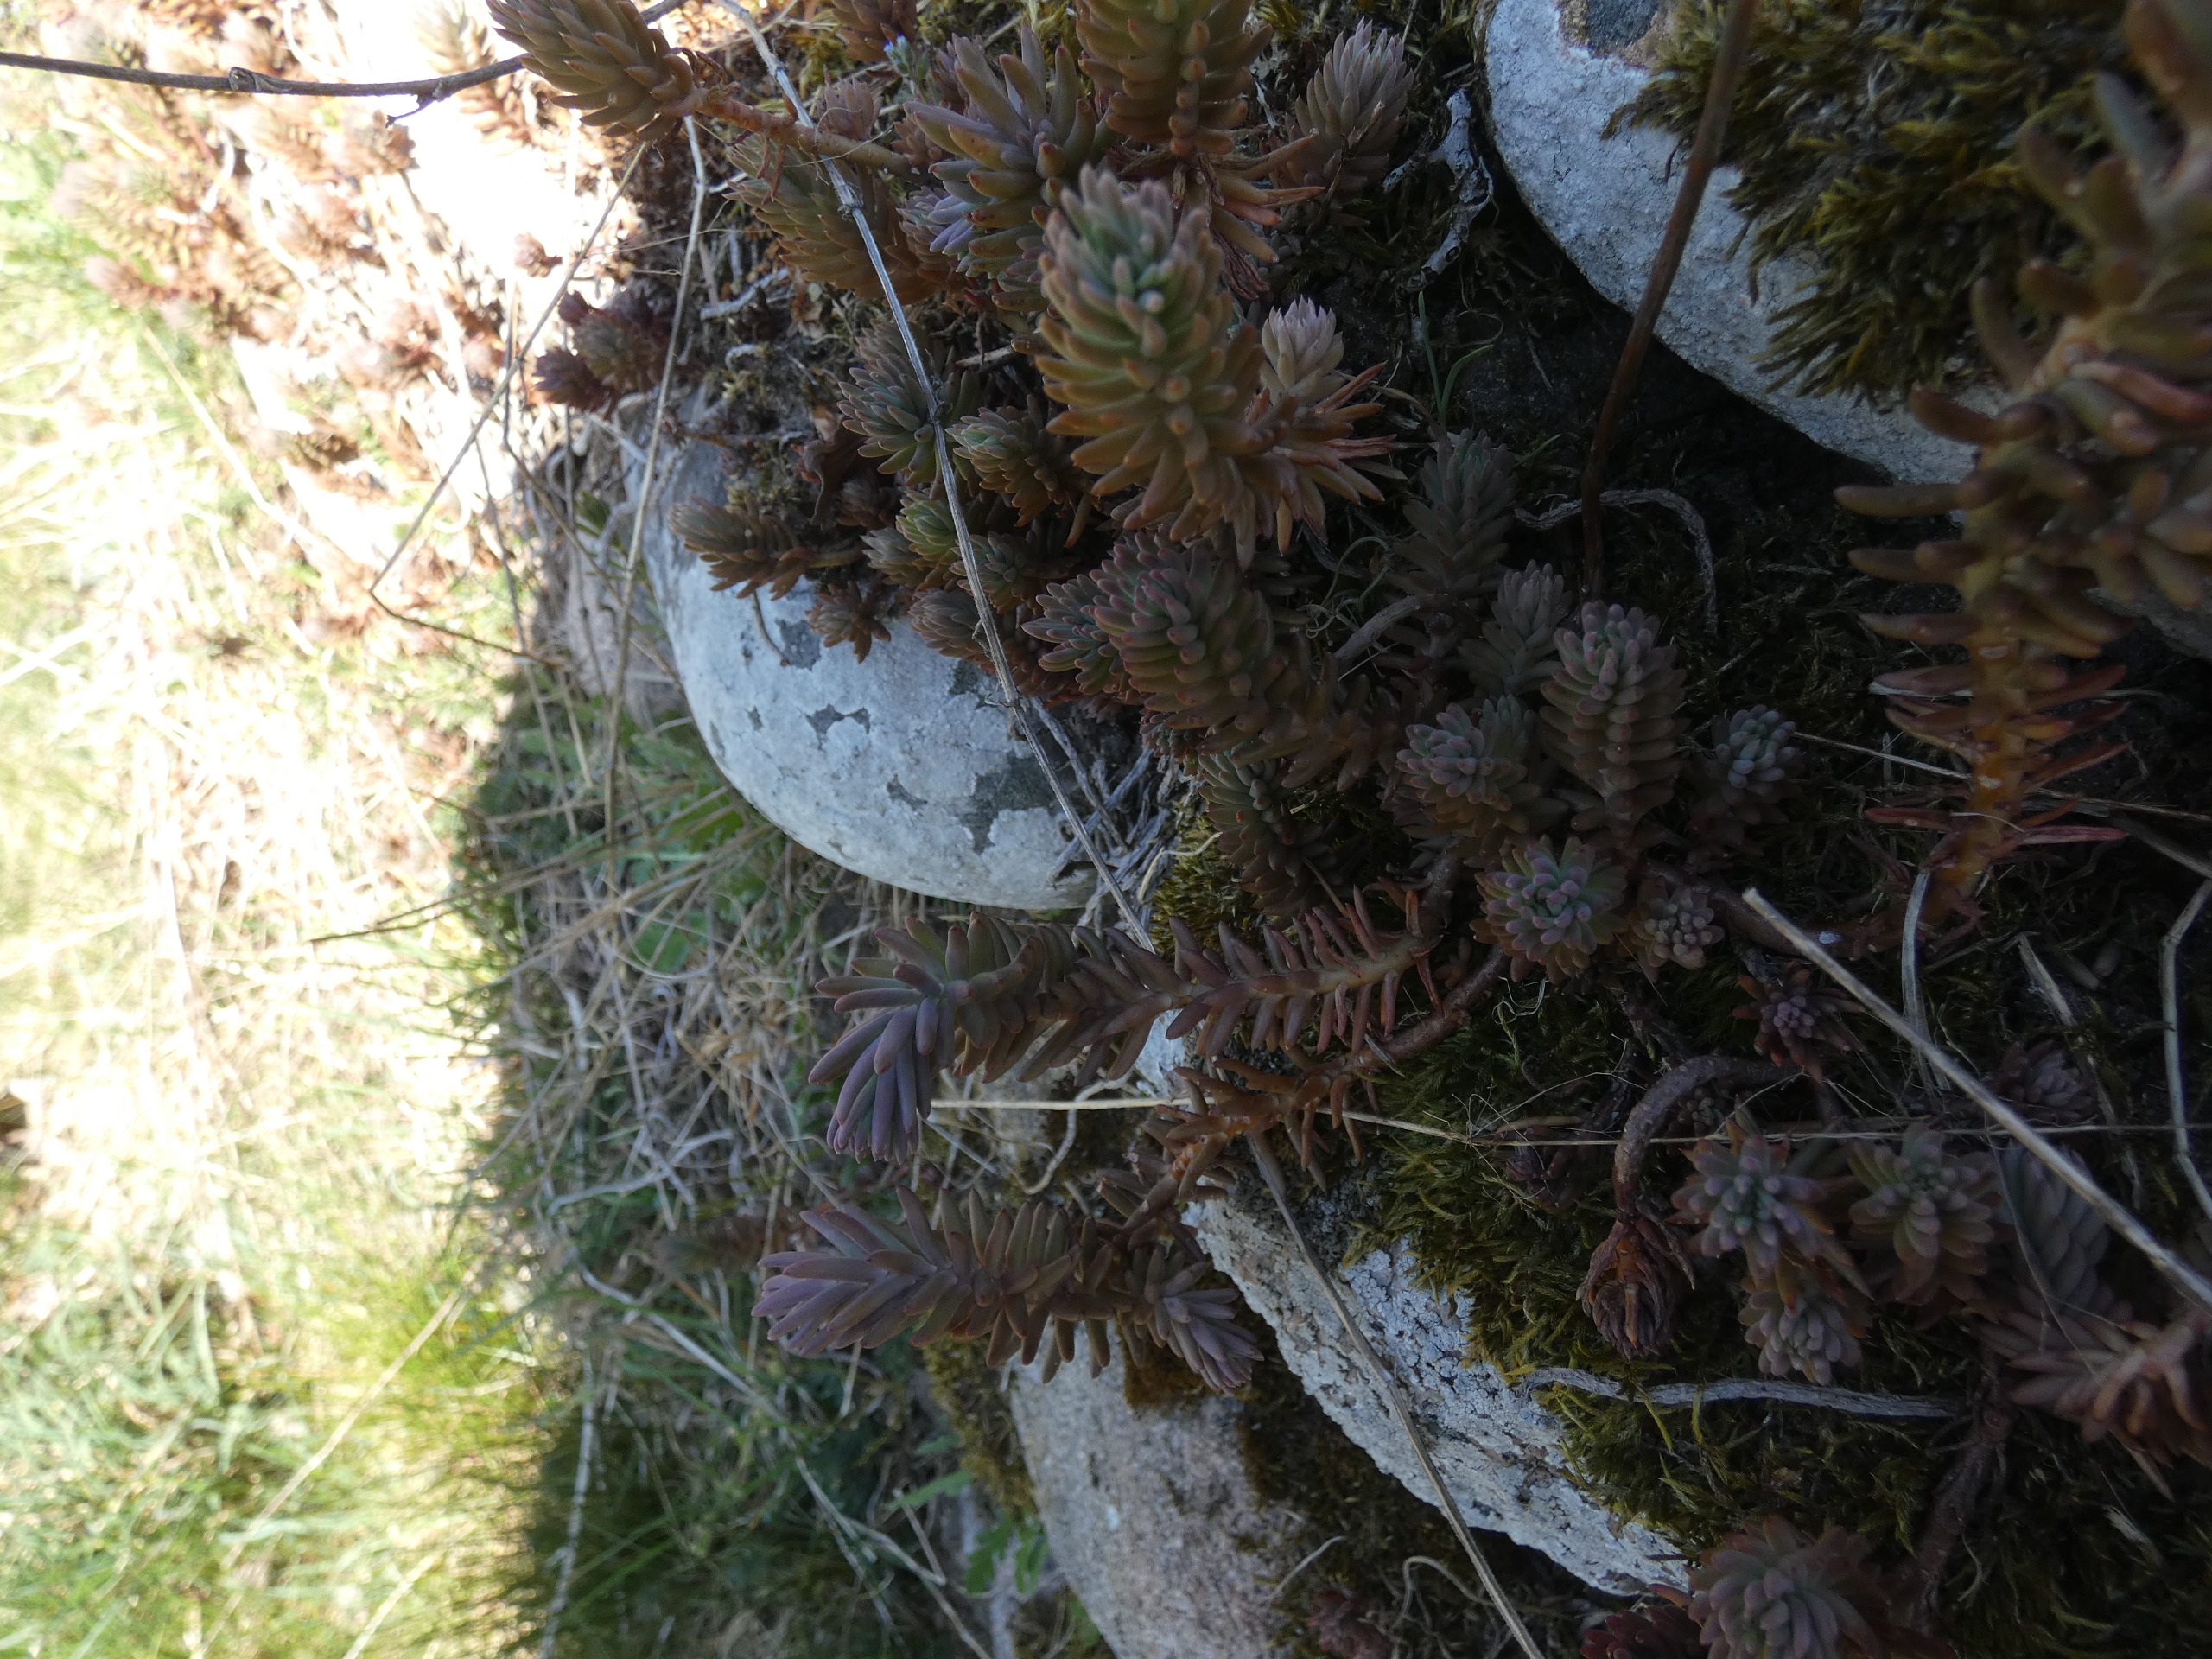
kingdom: Plantae
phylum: Tracheophyta
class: Magnoliopsida
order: Saxifragales
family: Crassulaceae
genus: Petrosedum
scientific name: Petrosedum rupestre
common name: Bjerg-stenurt
